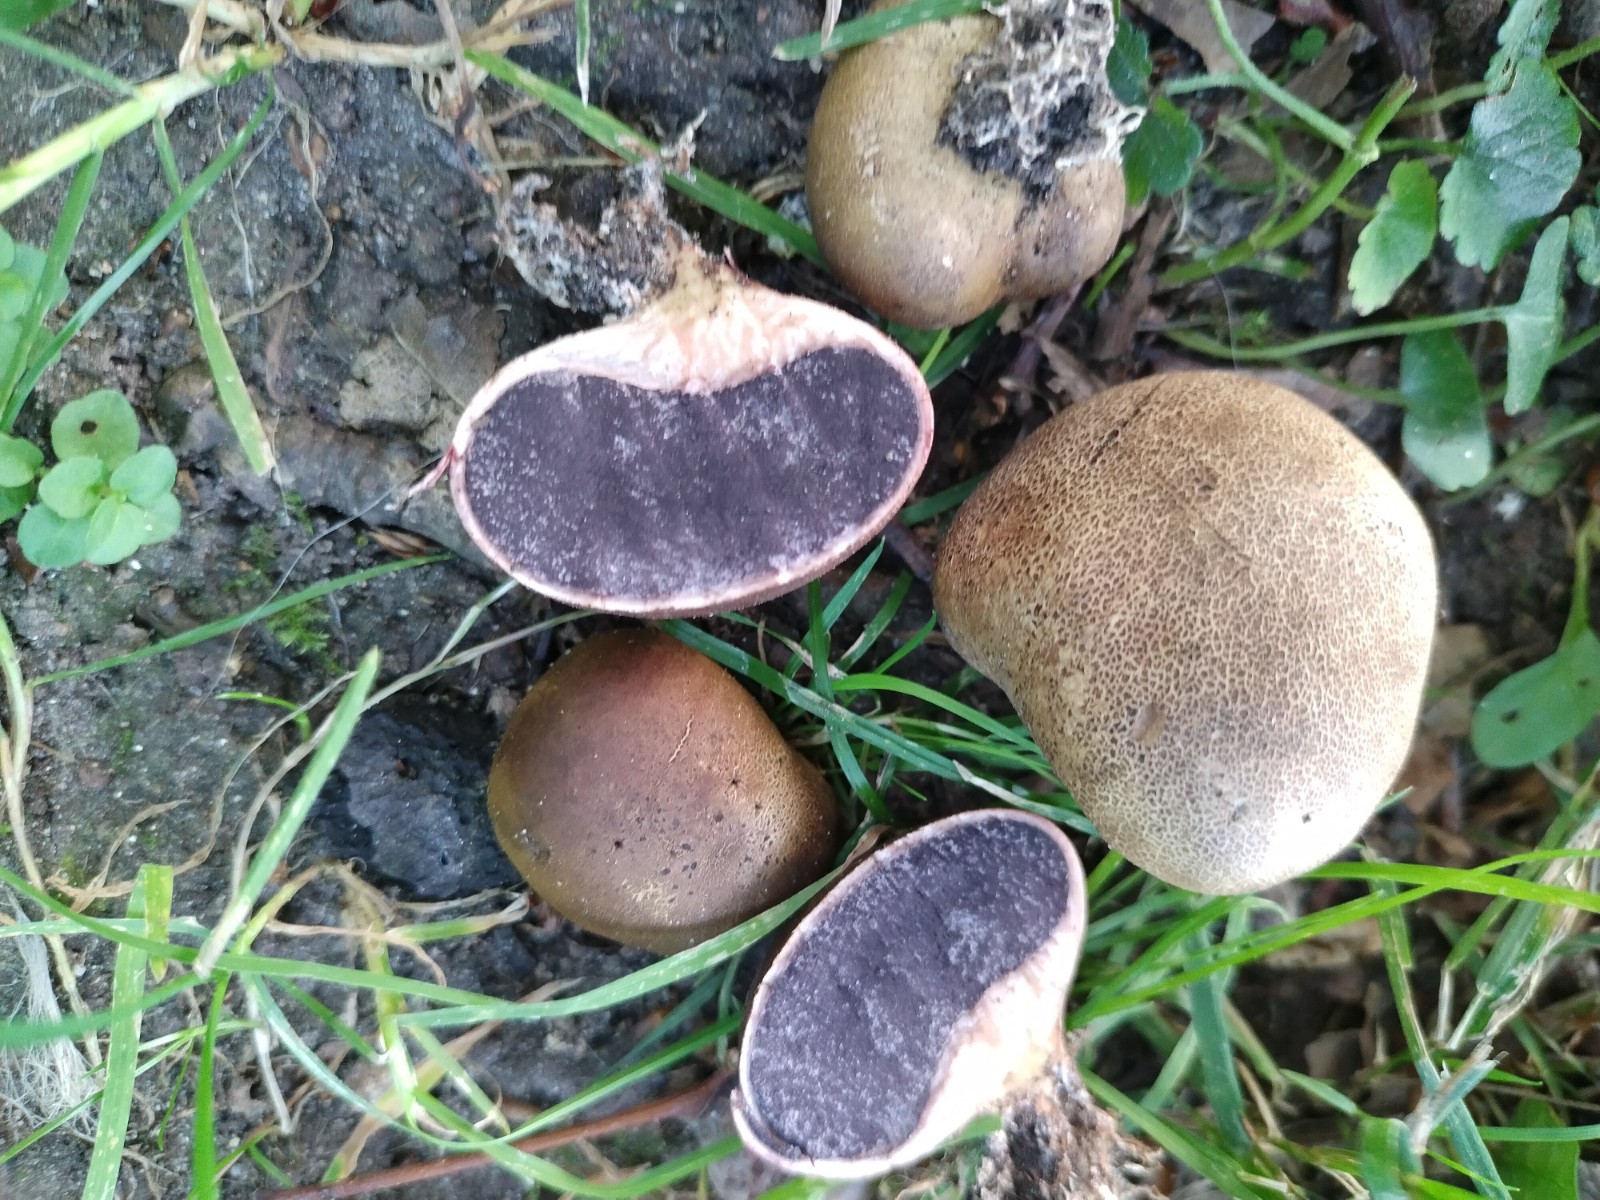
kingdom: Fungi
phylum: Basidiomycota
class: Agaricomycetes
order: Boletales
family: Sclerodermataceae
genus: Scleroderma
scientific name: Scleroderma bovista
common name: bovist-bruskbold
